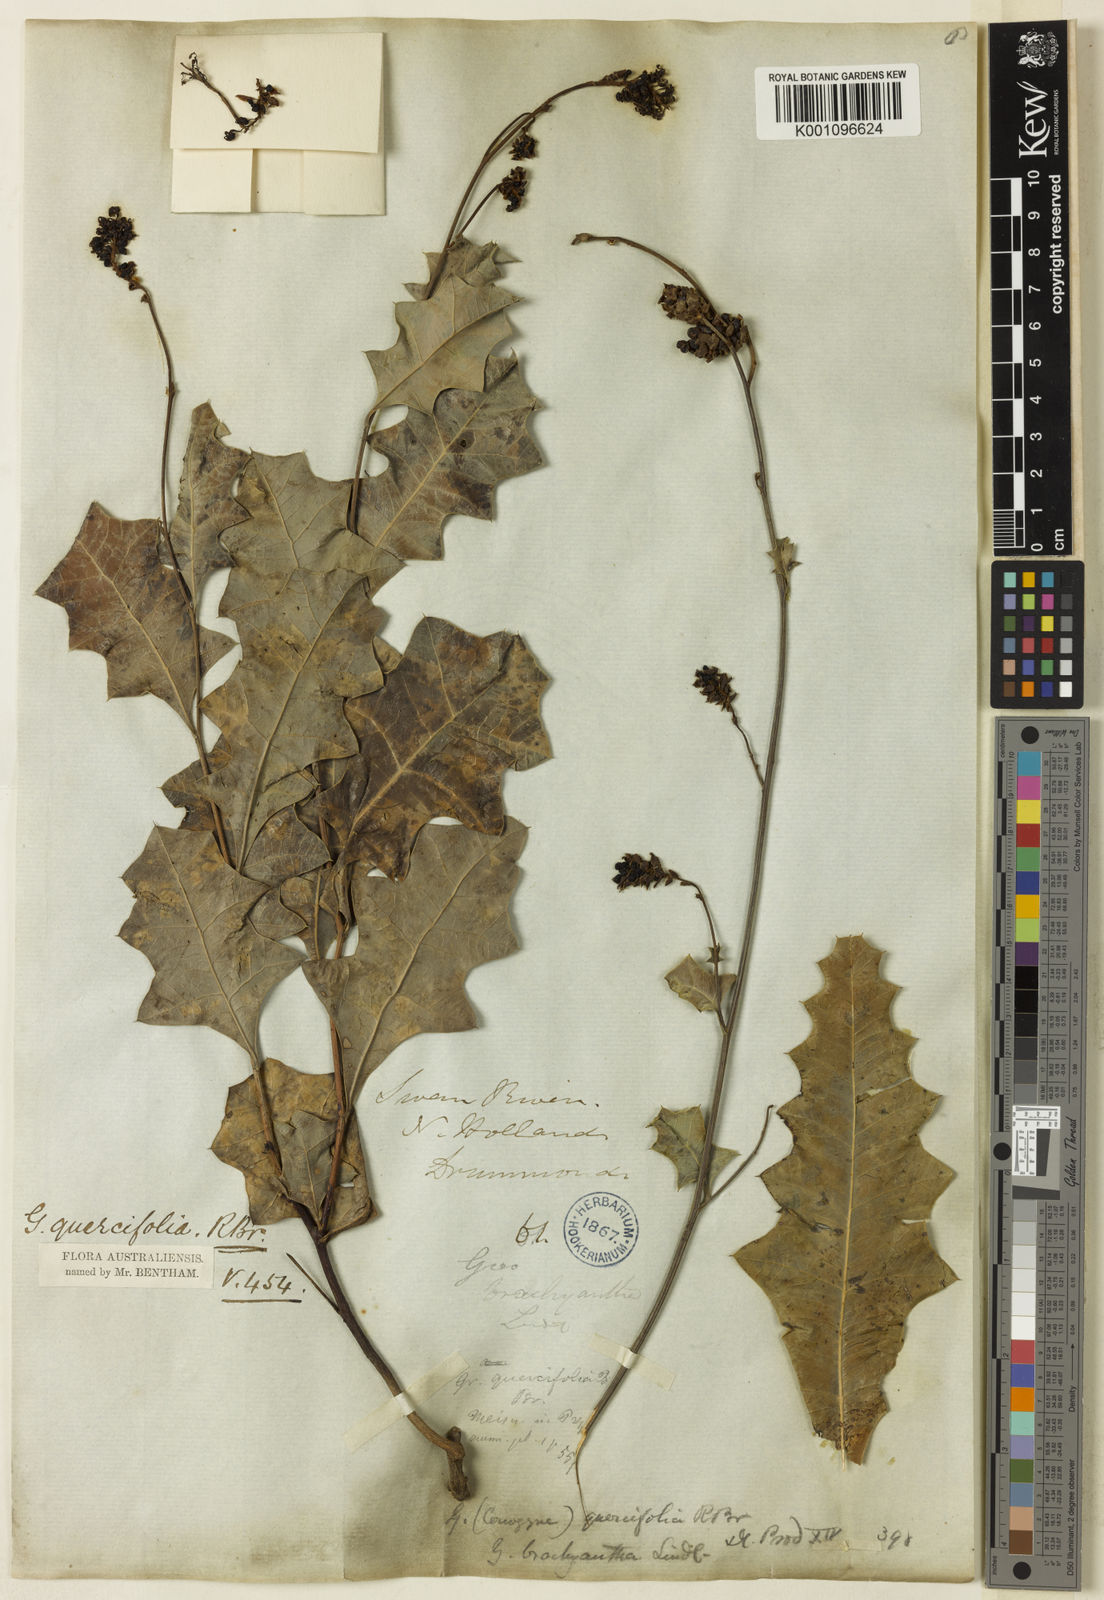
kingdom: Plantae
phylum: Tracheophyta
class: Magnoliopsida
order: Proteales
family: Proteaceae
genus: Grevillea
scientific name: Grevillea quercifolia
